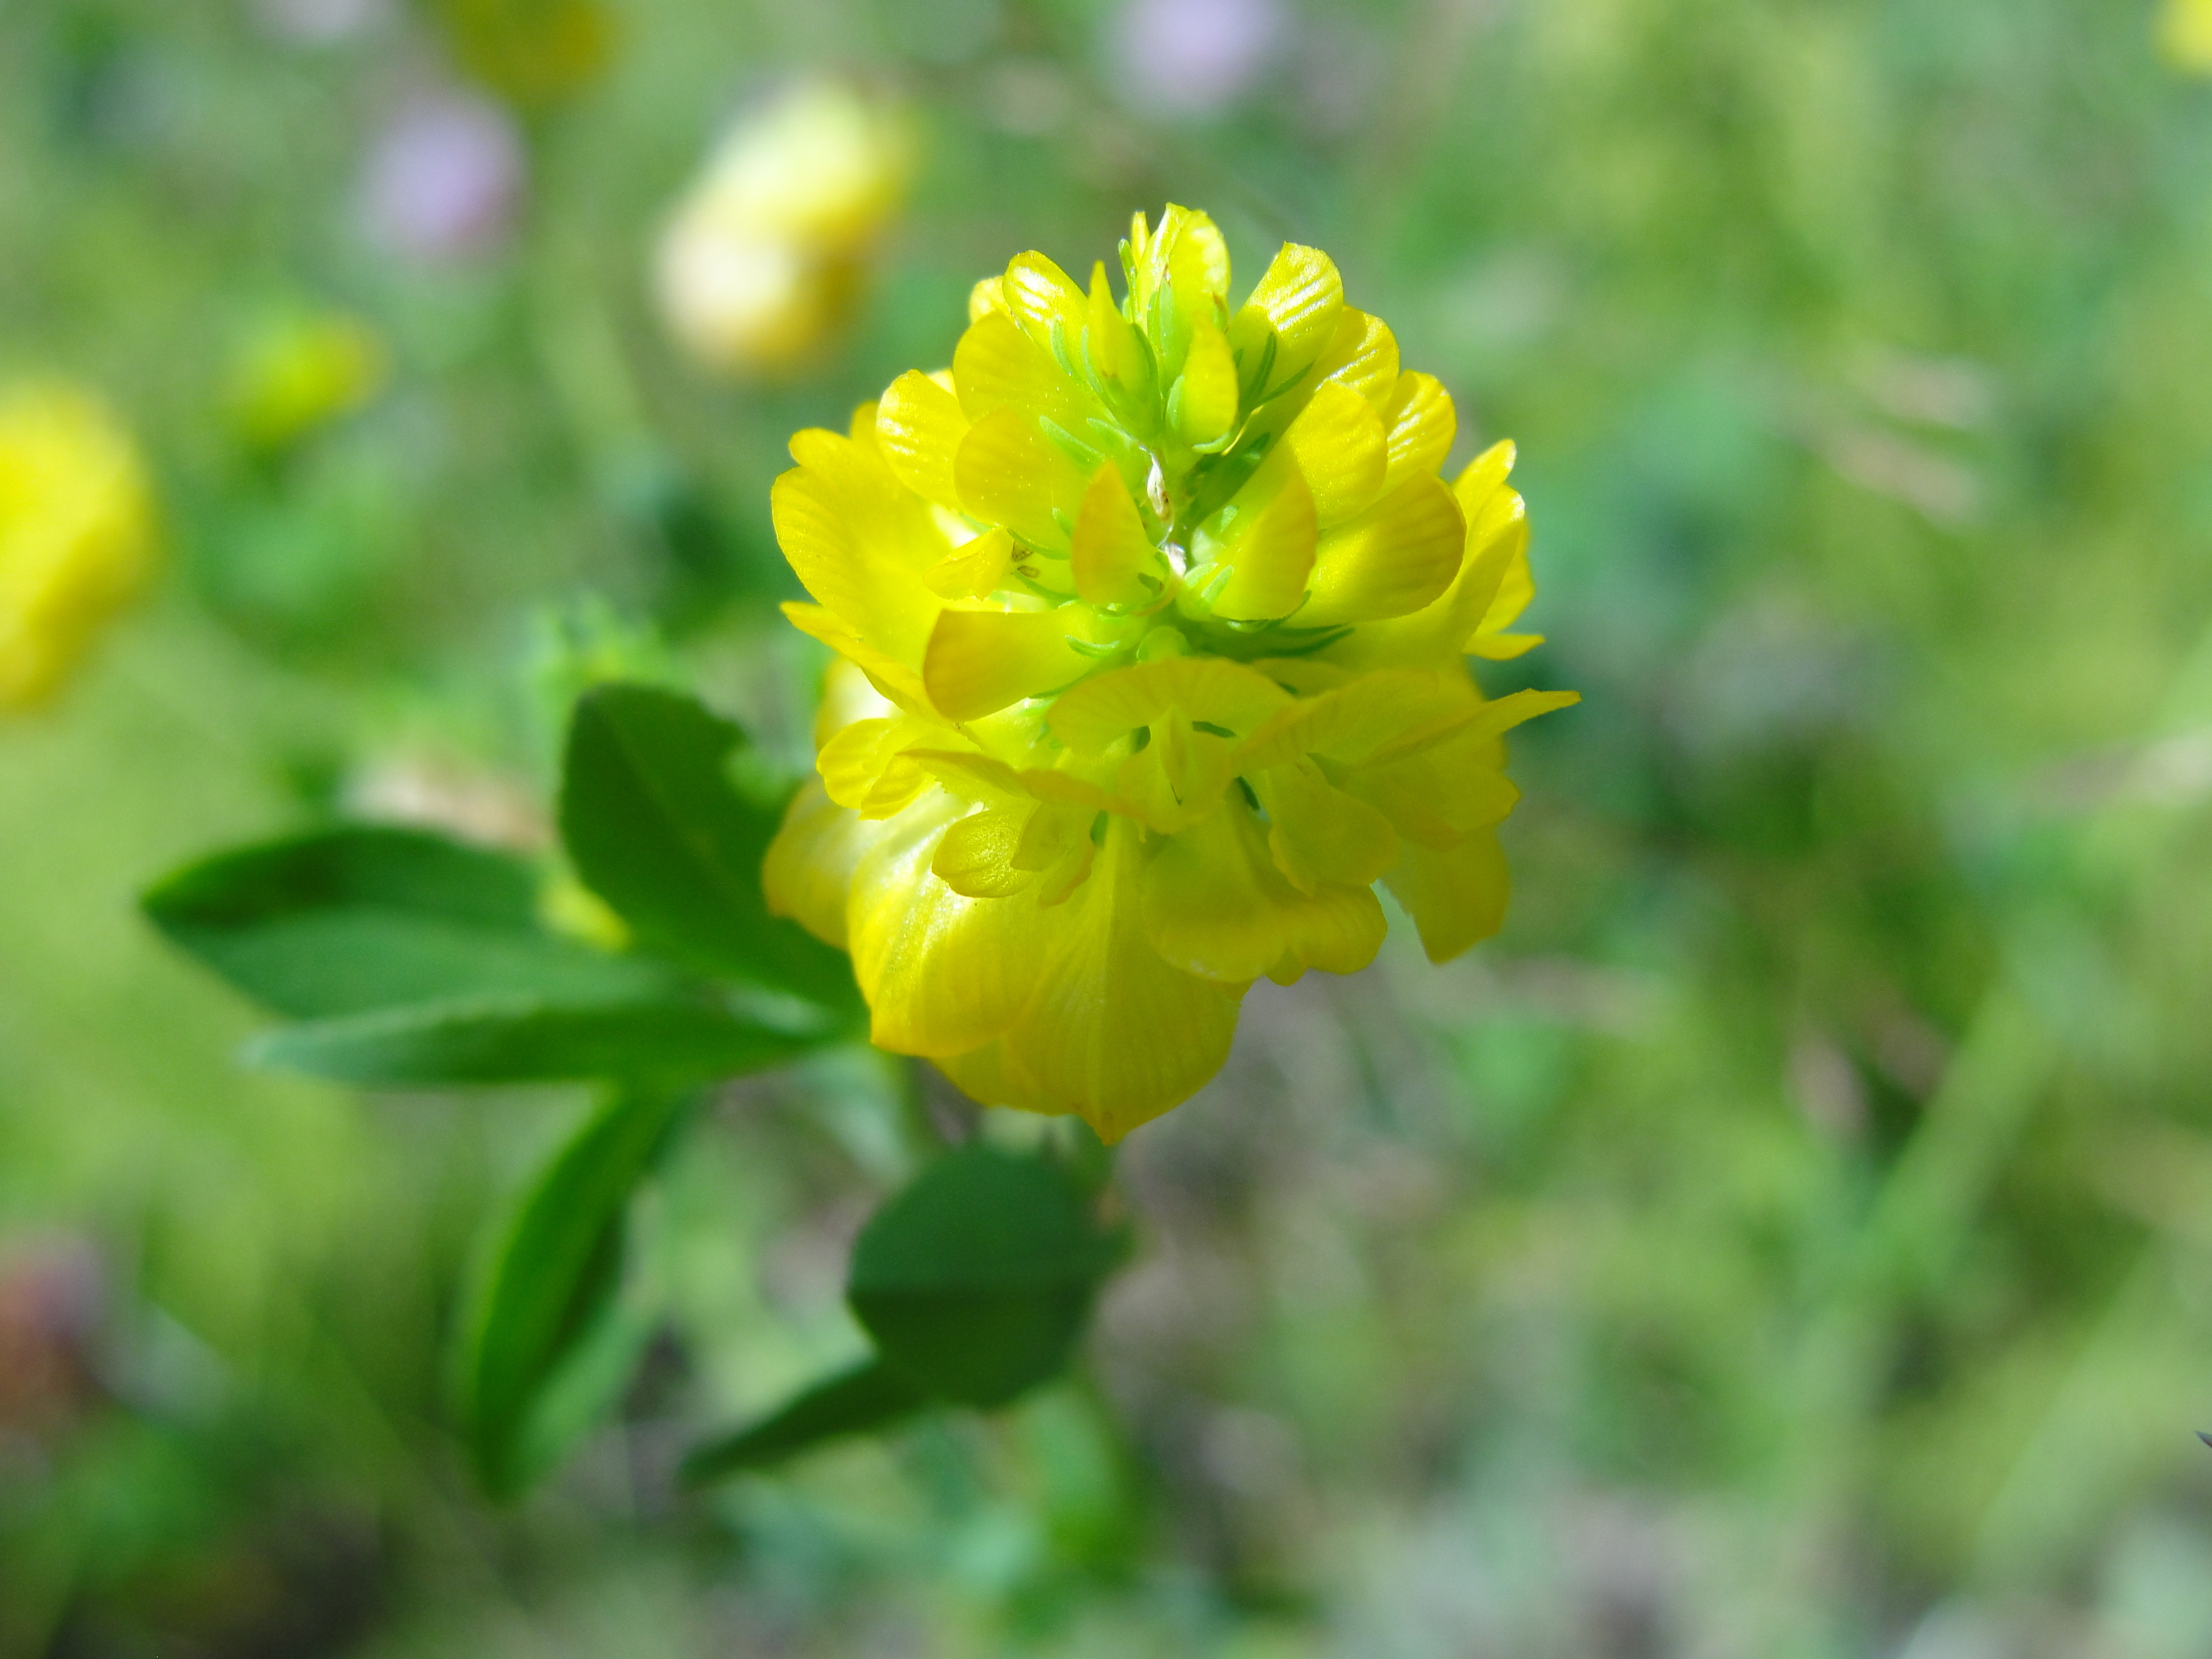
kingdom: Plantae
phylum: Tracheophyta
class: Magnoliopsida
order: Fabales
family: Fabaceae
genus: Trifolium
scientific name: Trifolium aureum
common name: Golden clover
